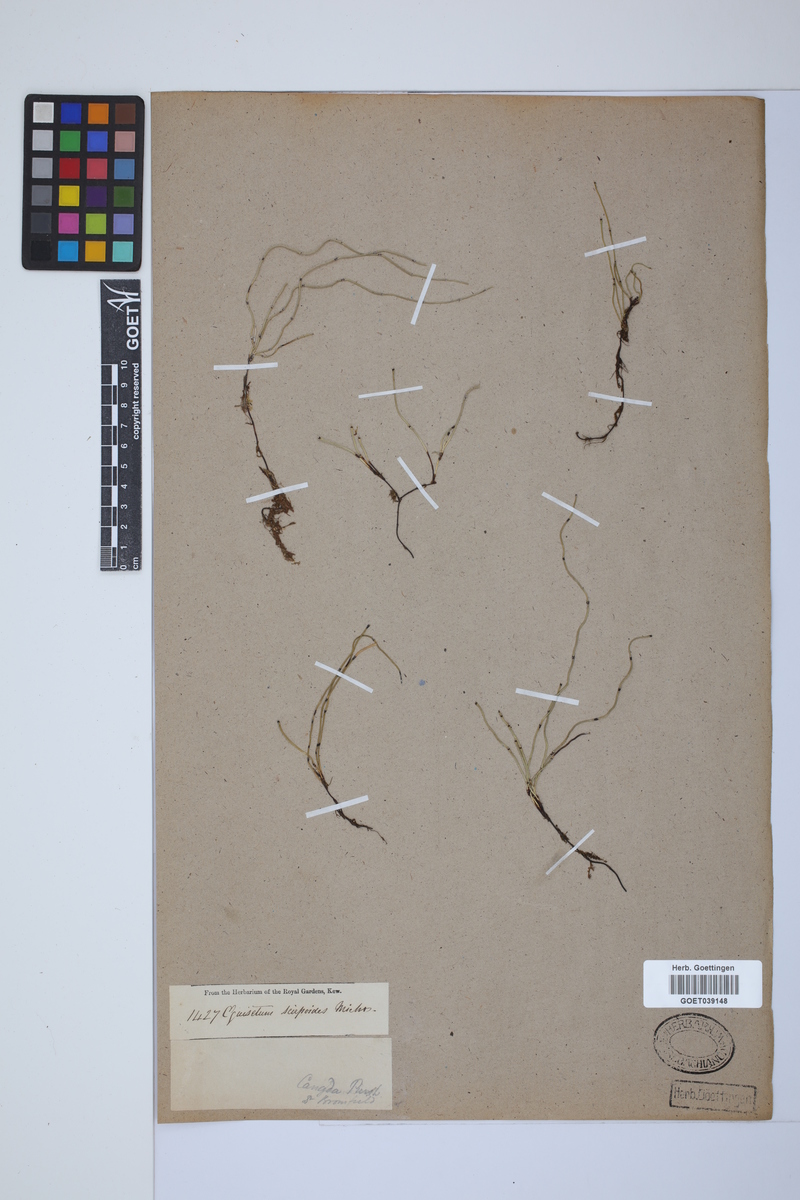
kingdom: Plantae
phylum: Tracheophyta
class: Polypodiopsida
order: Equisetales
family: Equisetaceae
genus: Equisetum
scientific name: Equisetum scirpoides
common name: Delicate horsetail
